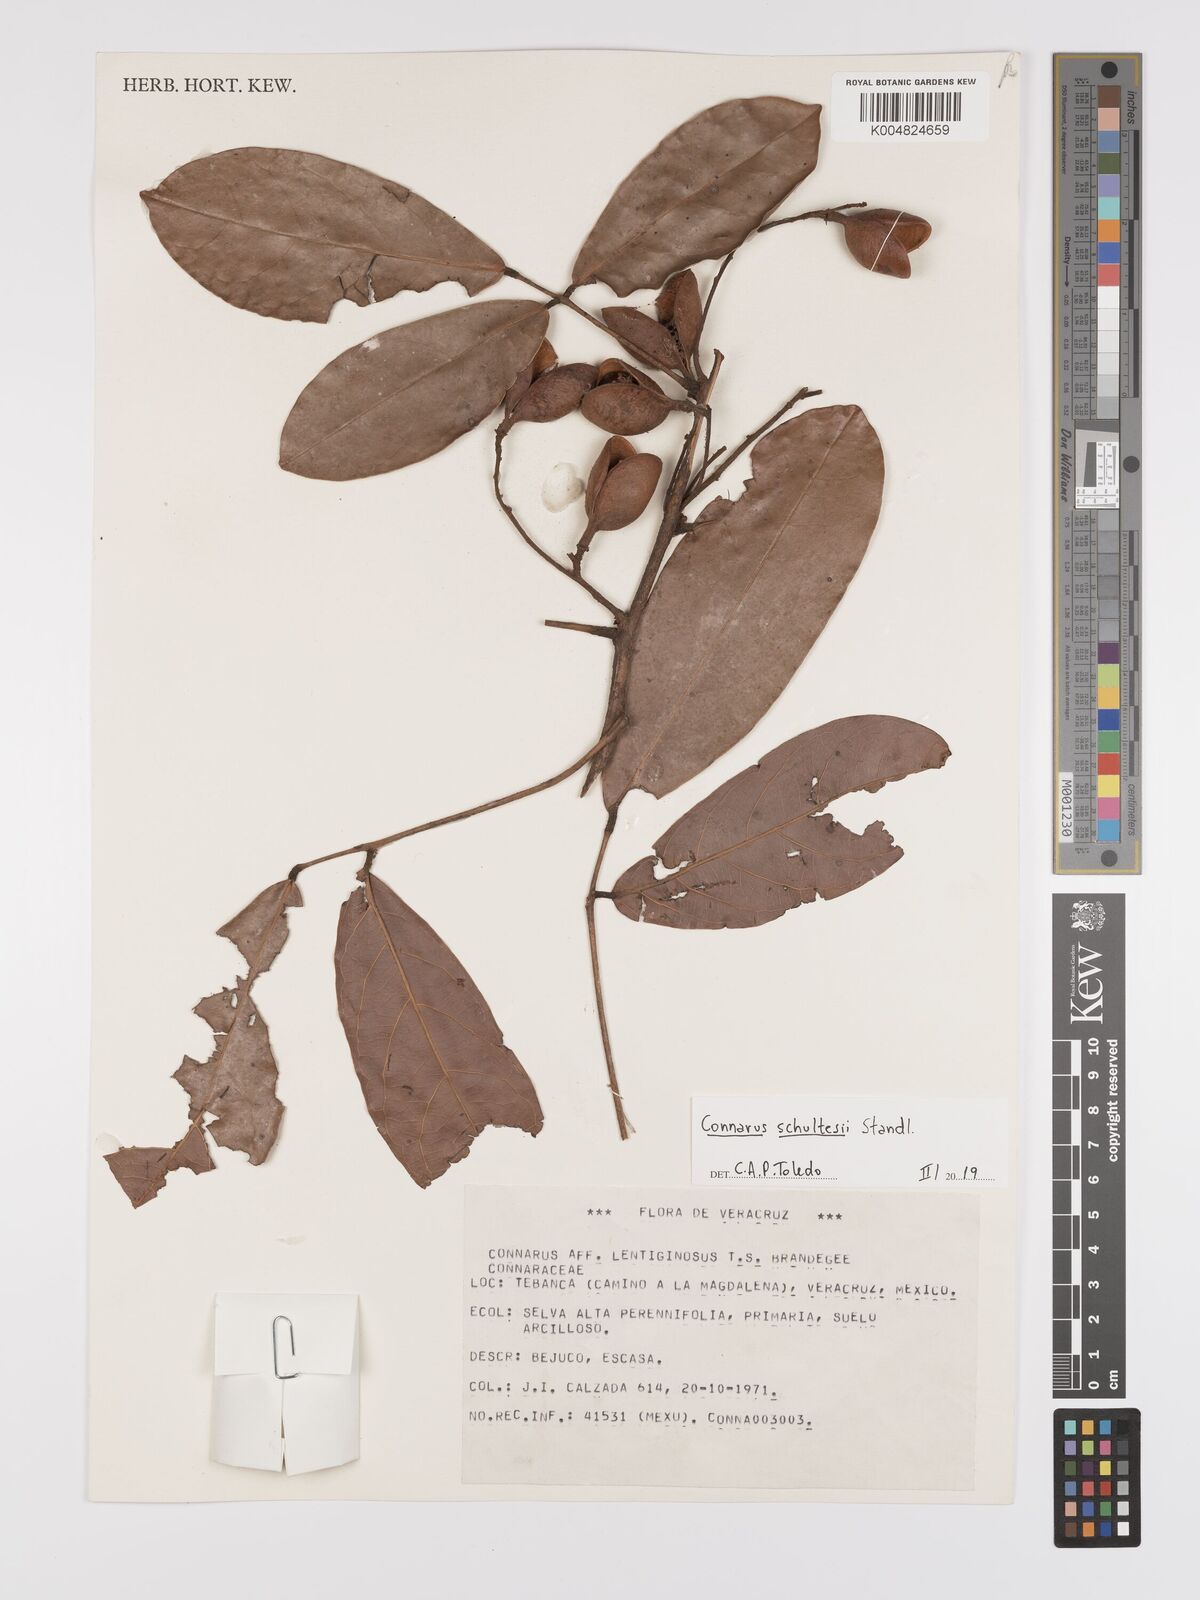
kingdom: Plantae
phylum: Tracheophyta
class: Magnoliopsida
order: Oxalidales
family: Connaraceae
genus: Connarus
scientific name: Connarus schultesii
